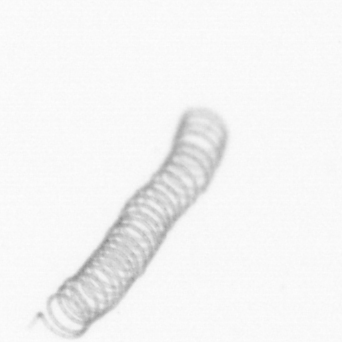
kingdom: Chromista
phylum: Ochrophyta
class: Bacillariophyceae
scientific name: Bacillariophyceae
